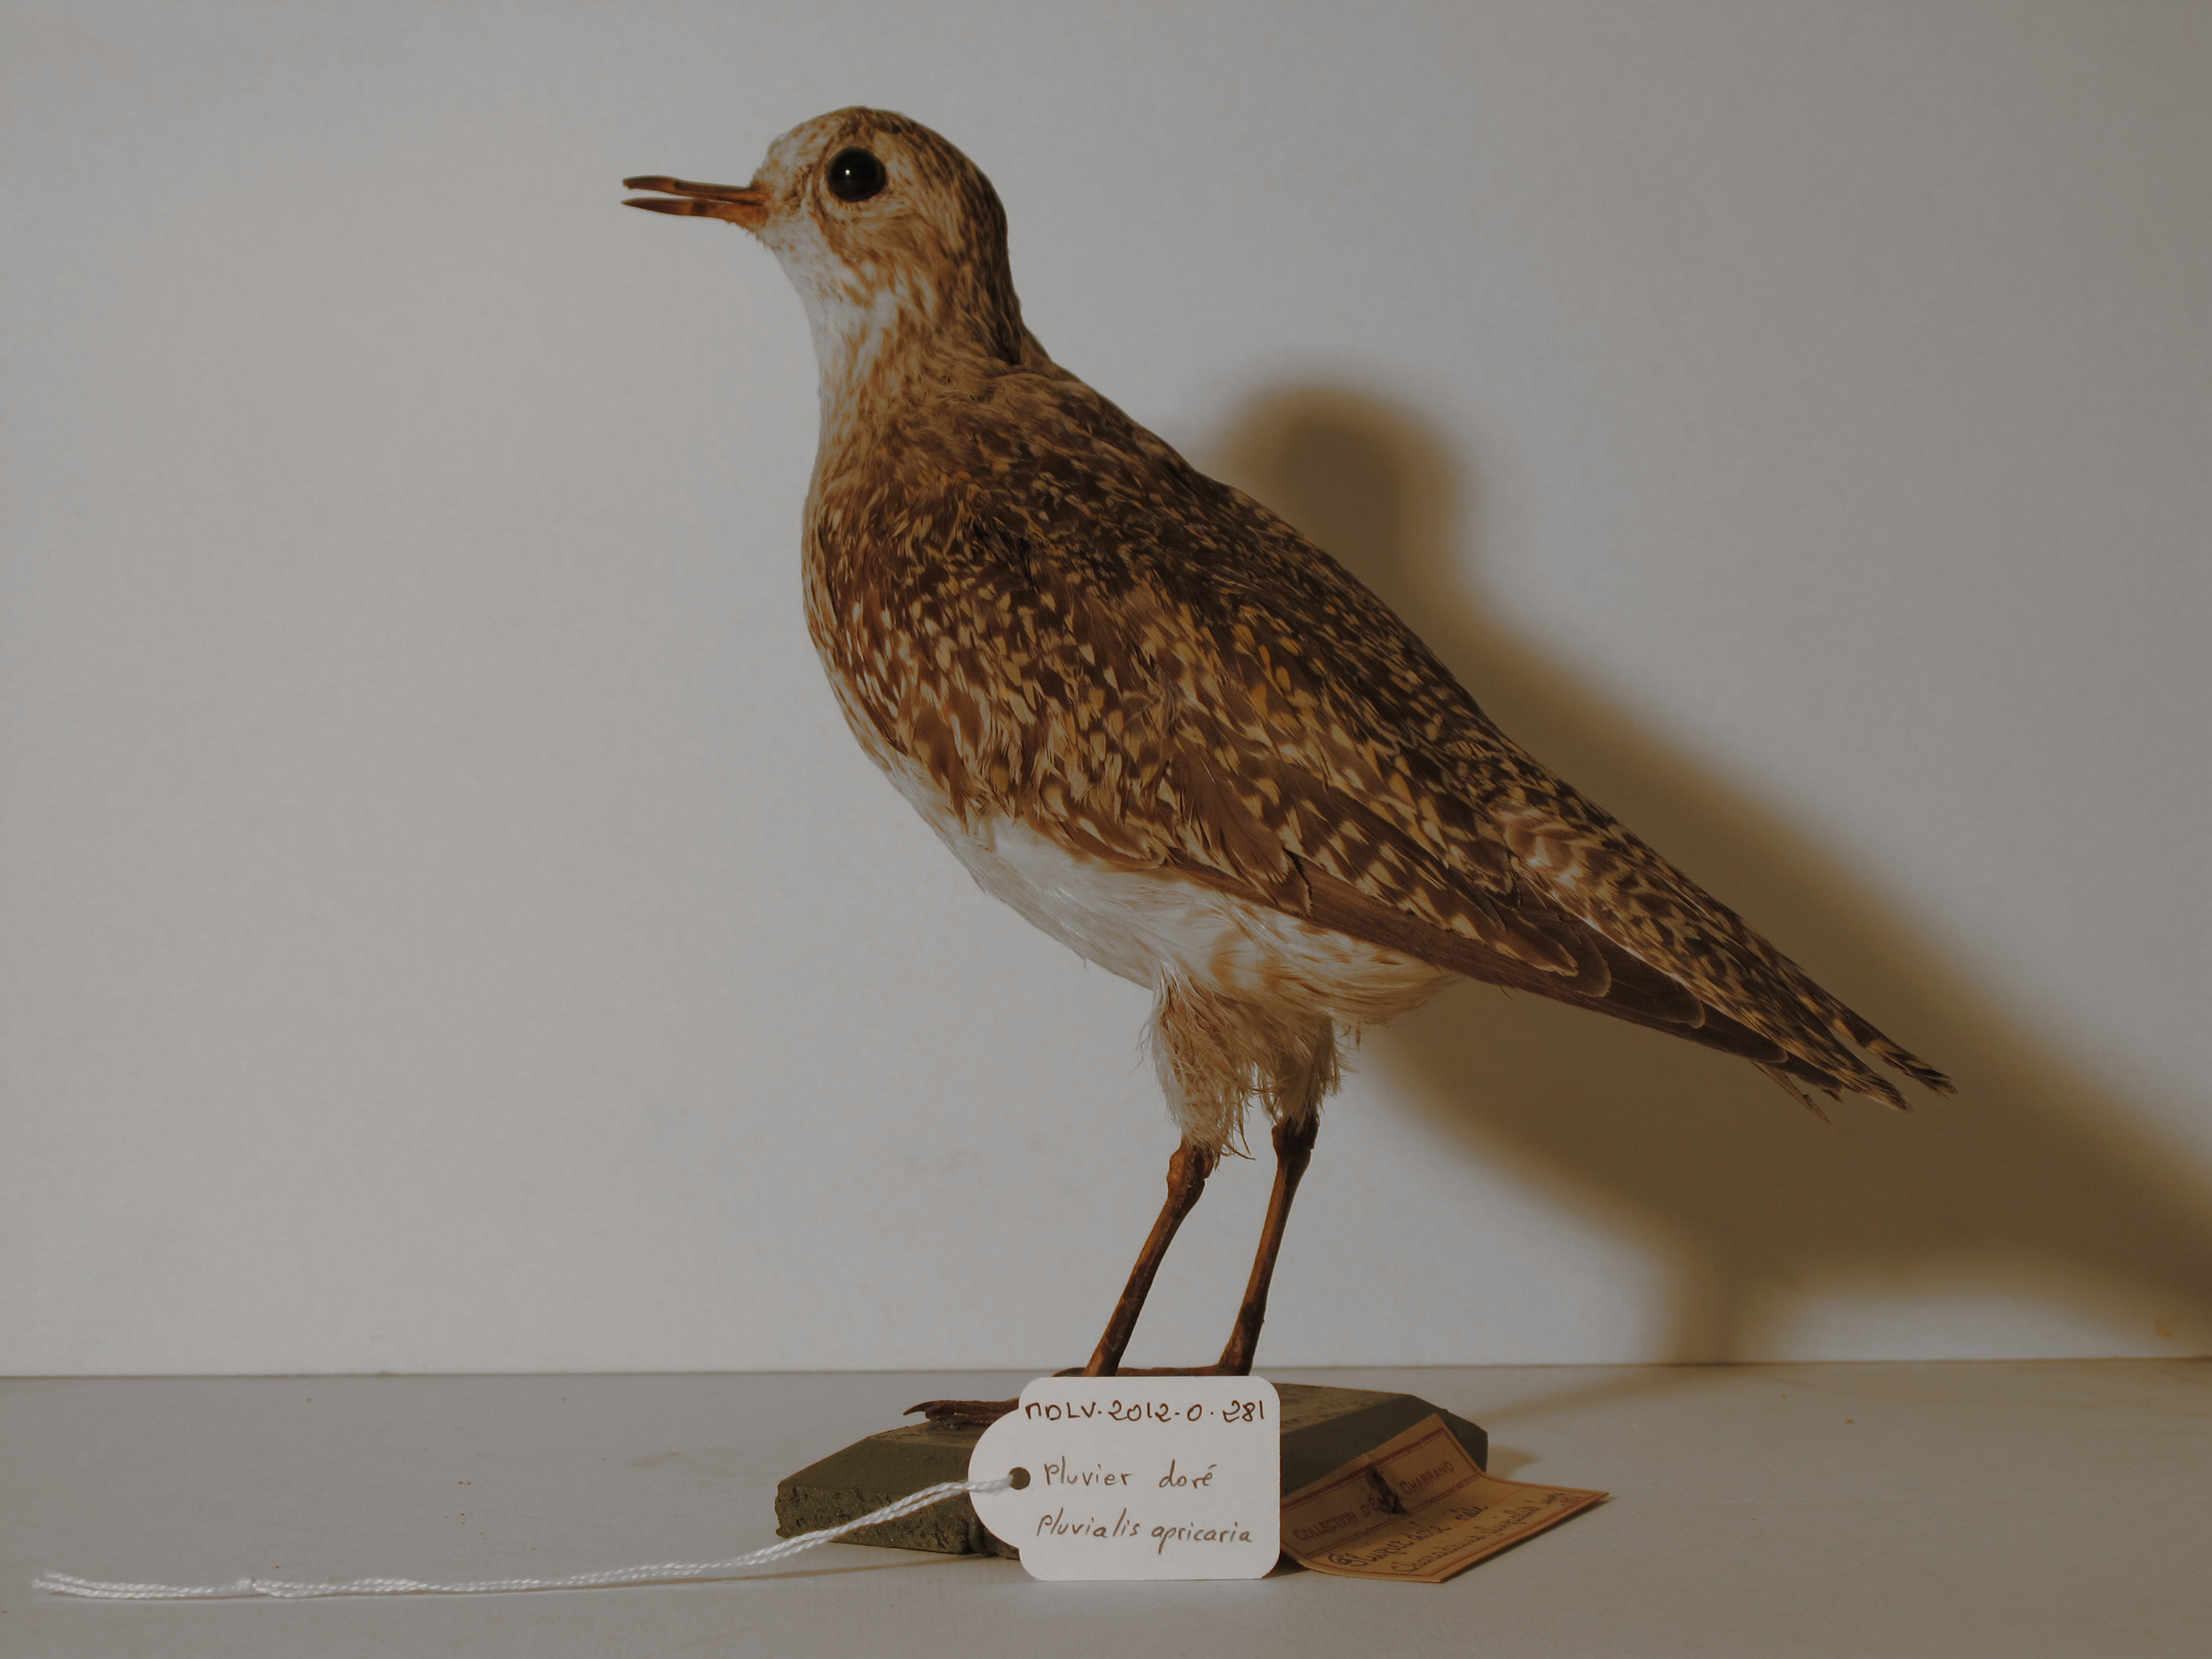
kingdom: Animalia
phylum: Chordata
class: Aves
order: Charadriiformes
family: Charadriidae
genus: Pluvialis
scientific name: Pluvialis apricaria
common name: Eurasian Golden Plover
